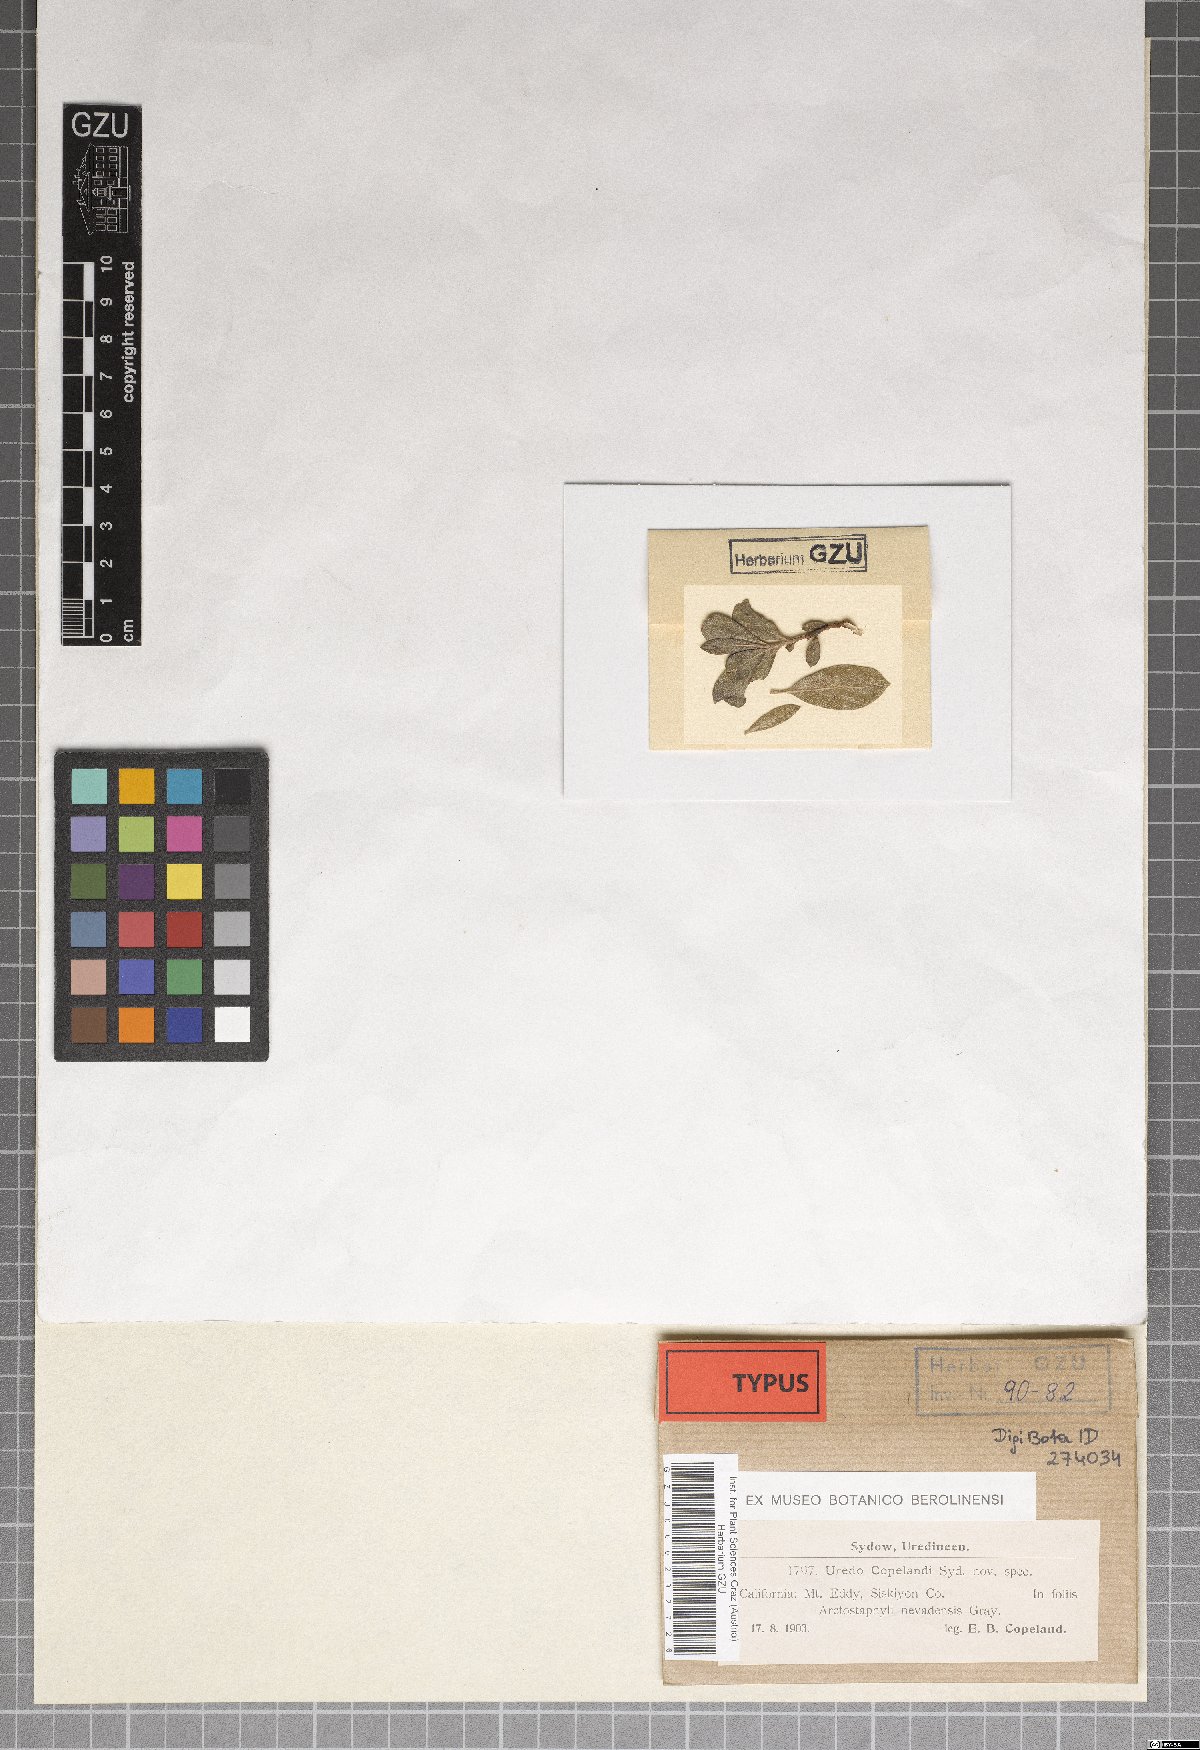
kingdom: Fungi
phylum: Basidiomycota
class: Pucciniomycetes
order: Pucciniales
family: Pucciniaceae
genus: Uredo
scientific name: Uredo copelandii
